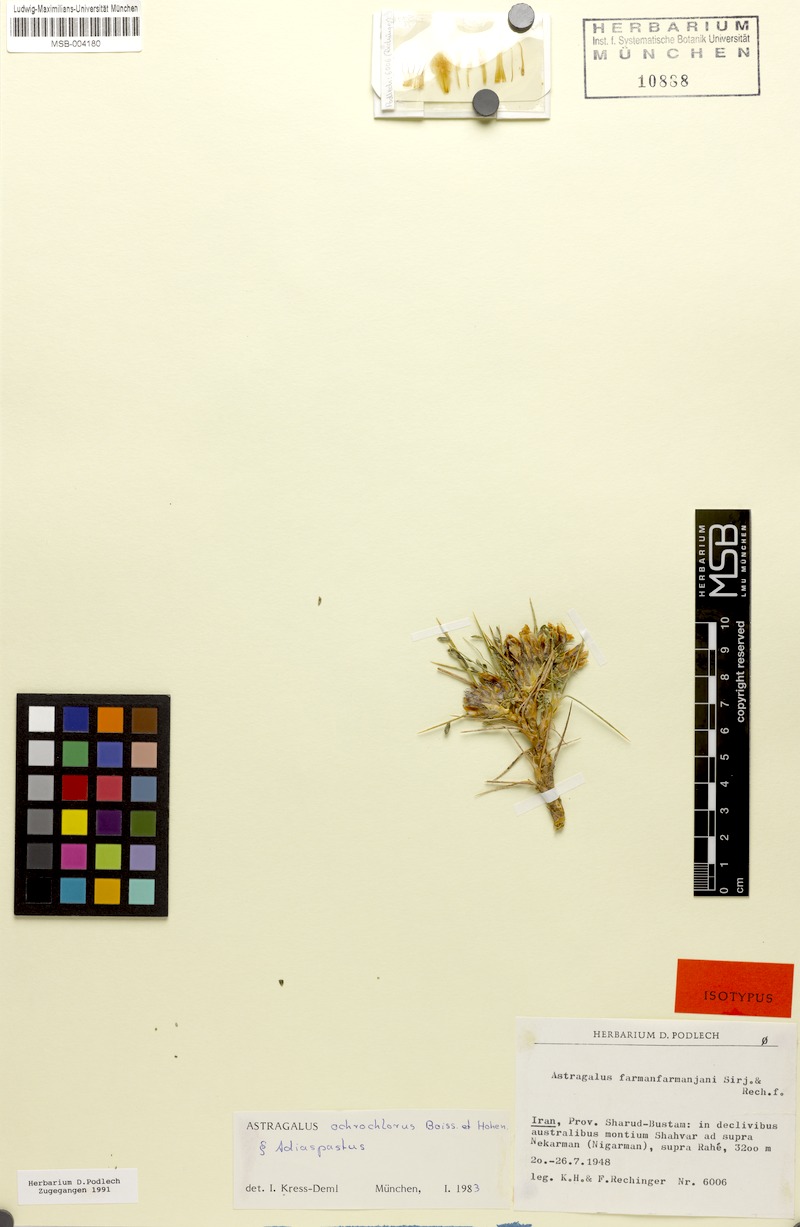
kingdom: Plantae
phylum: Tracheophyta
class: Magnoliopsida
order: Fabales
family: Fabaceae
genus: Astragalus
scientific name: Astragalus ochrochlorus
